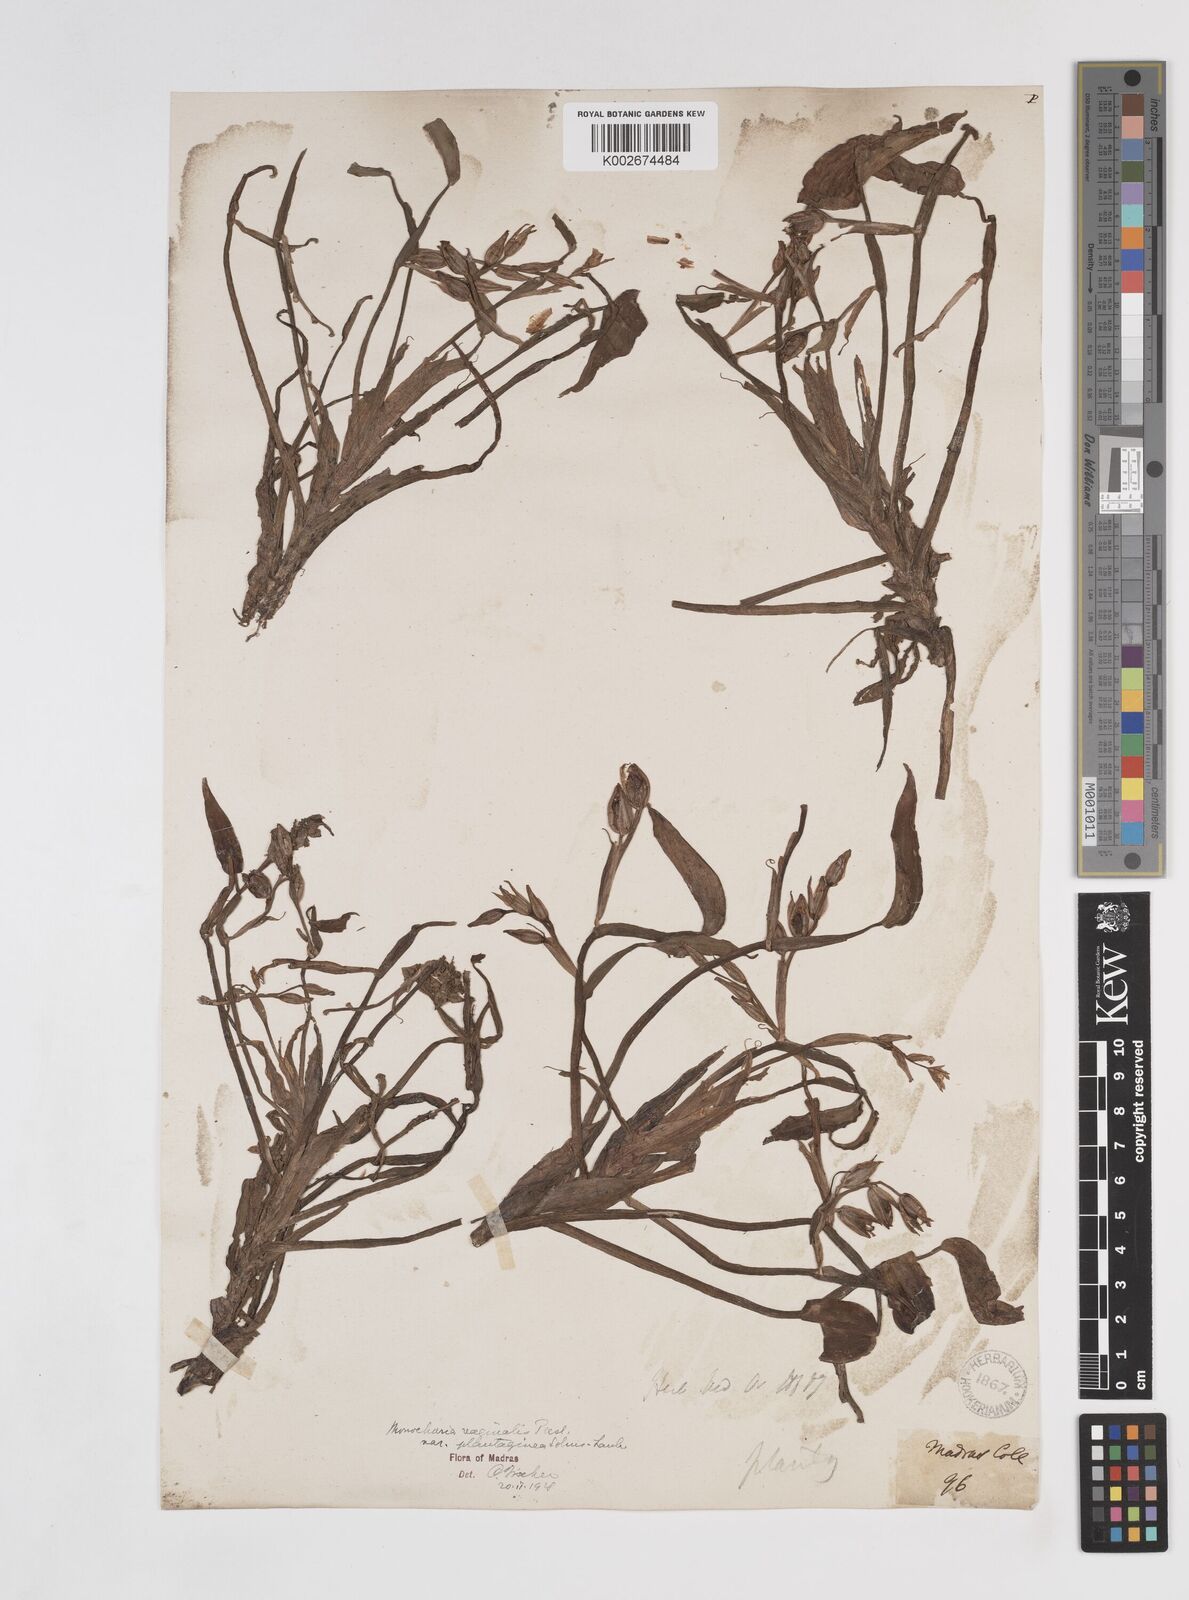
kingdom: Plantae
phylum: Tracheophyta
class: Liliopsida
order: Commelinales
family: Pontederiaceae
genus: Pontederia
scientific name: Pontederia vaginalis
